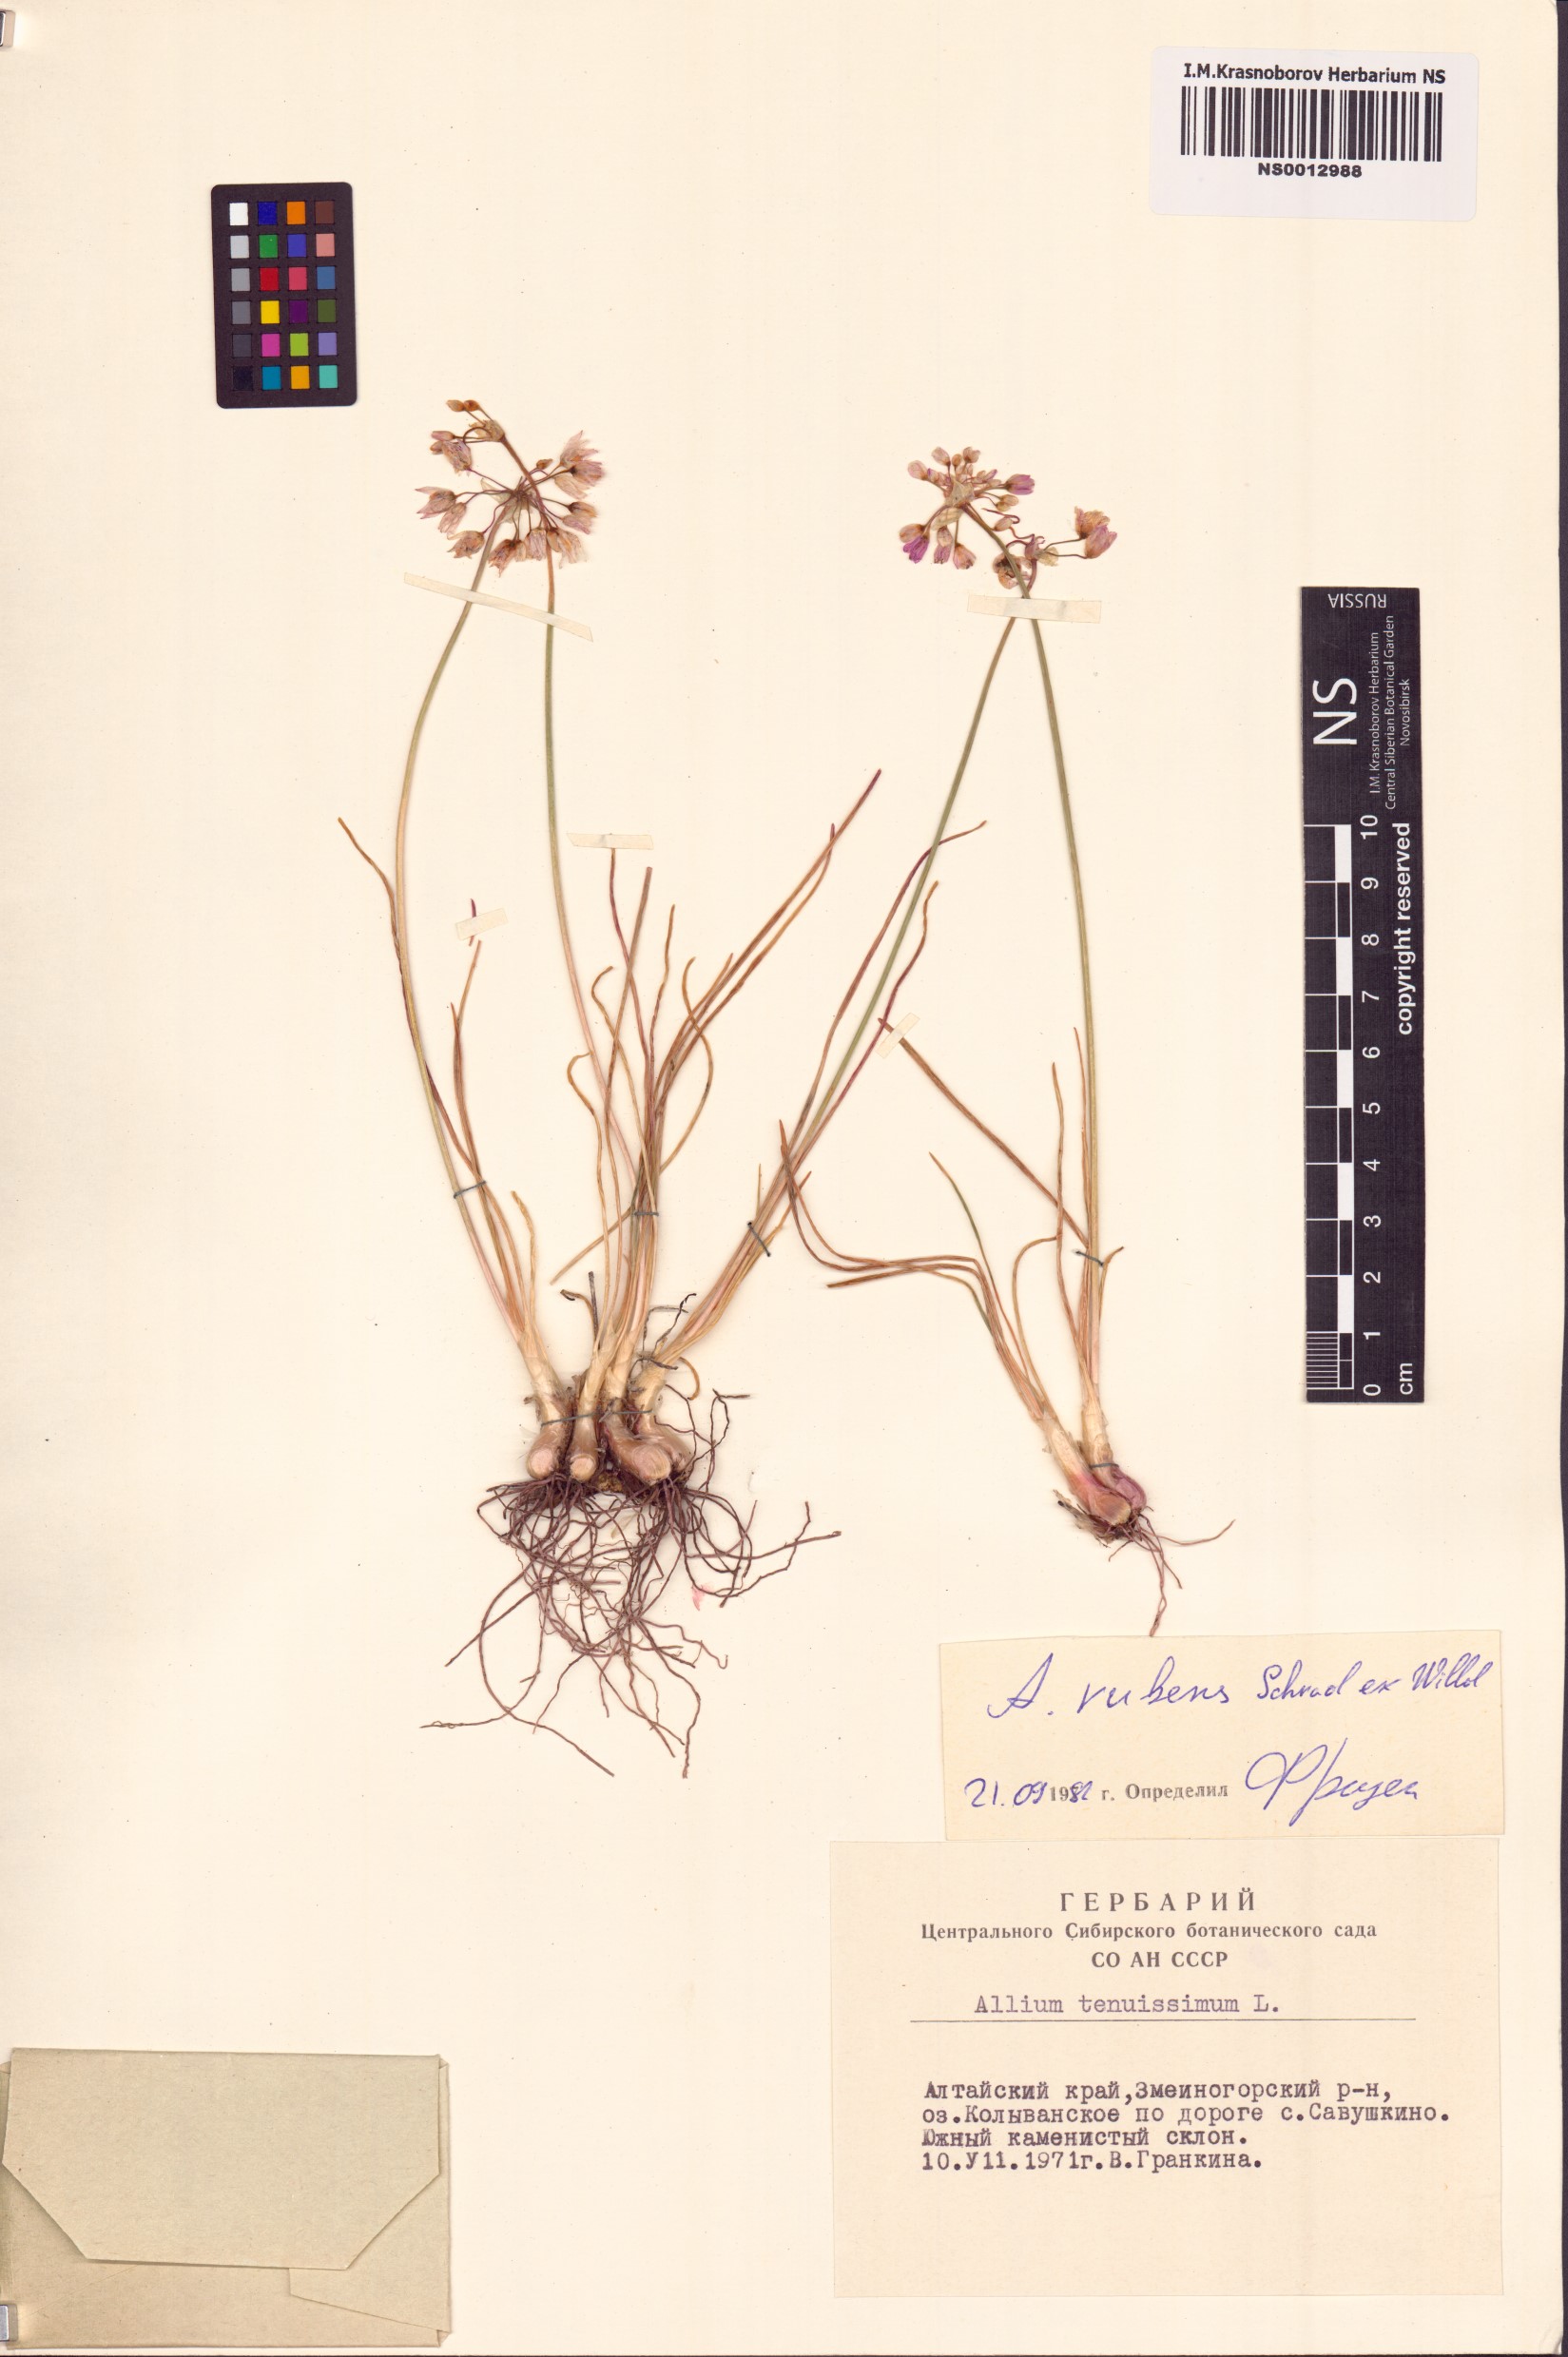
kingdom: Plantae
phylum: Tracheophyta
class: Liliopsida
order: Asparagales
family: Amaryllidaceae
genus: Allium
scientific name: Allium rubens
